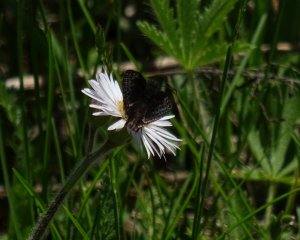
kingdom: Animalia
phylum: Arthropoda
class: Insecta
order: Lepidoptera
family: Hesperiidae
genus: Erynnis
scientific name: Erynnis
